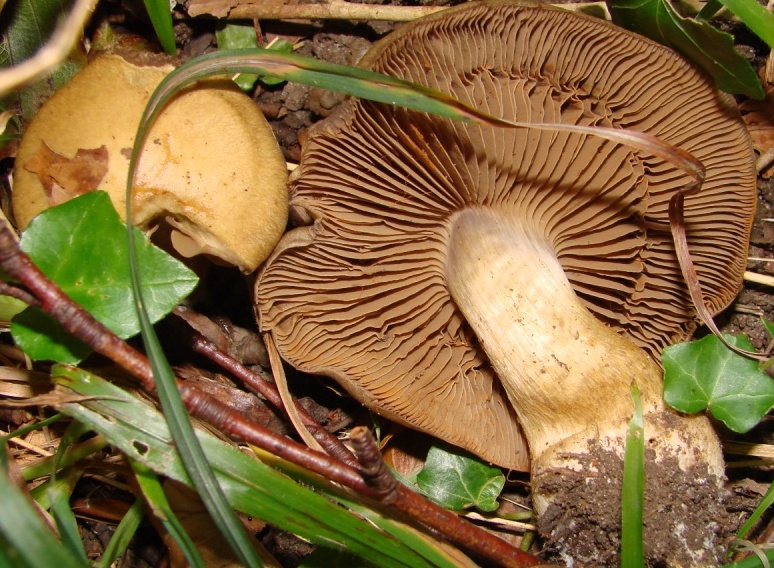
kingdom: Fungi
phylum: Basidiomycota
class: Agaricomycetes
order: Agaricales
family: Cortinariaceae
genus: Cortinarius
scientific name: Cortinarius
